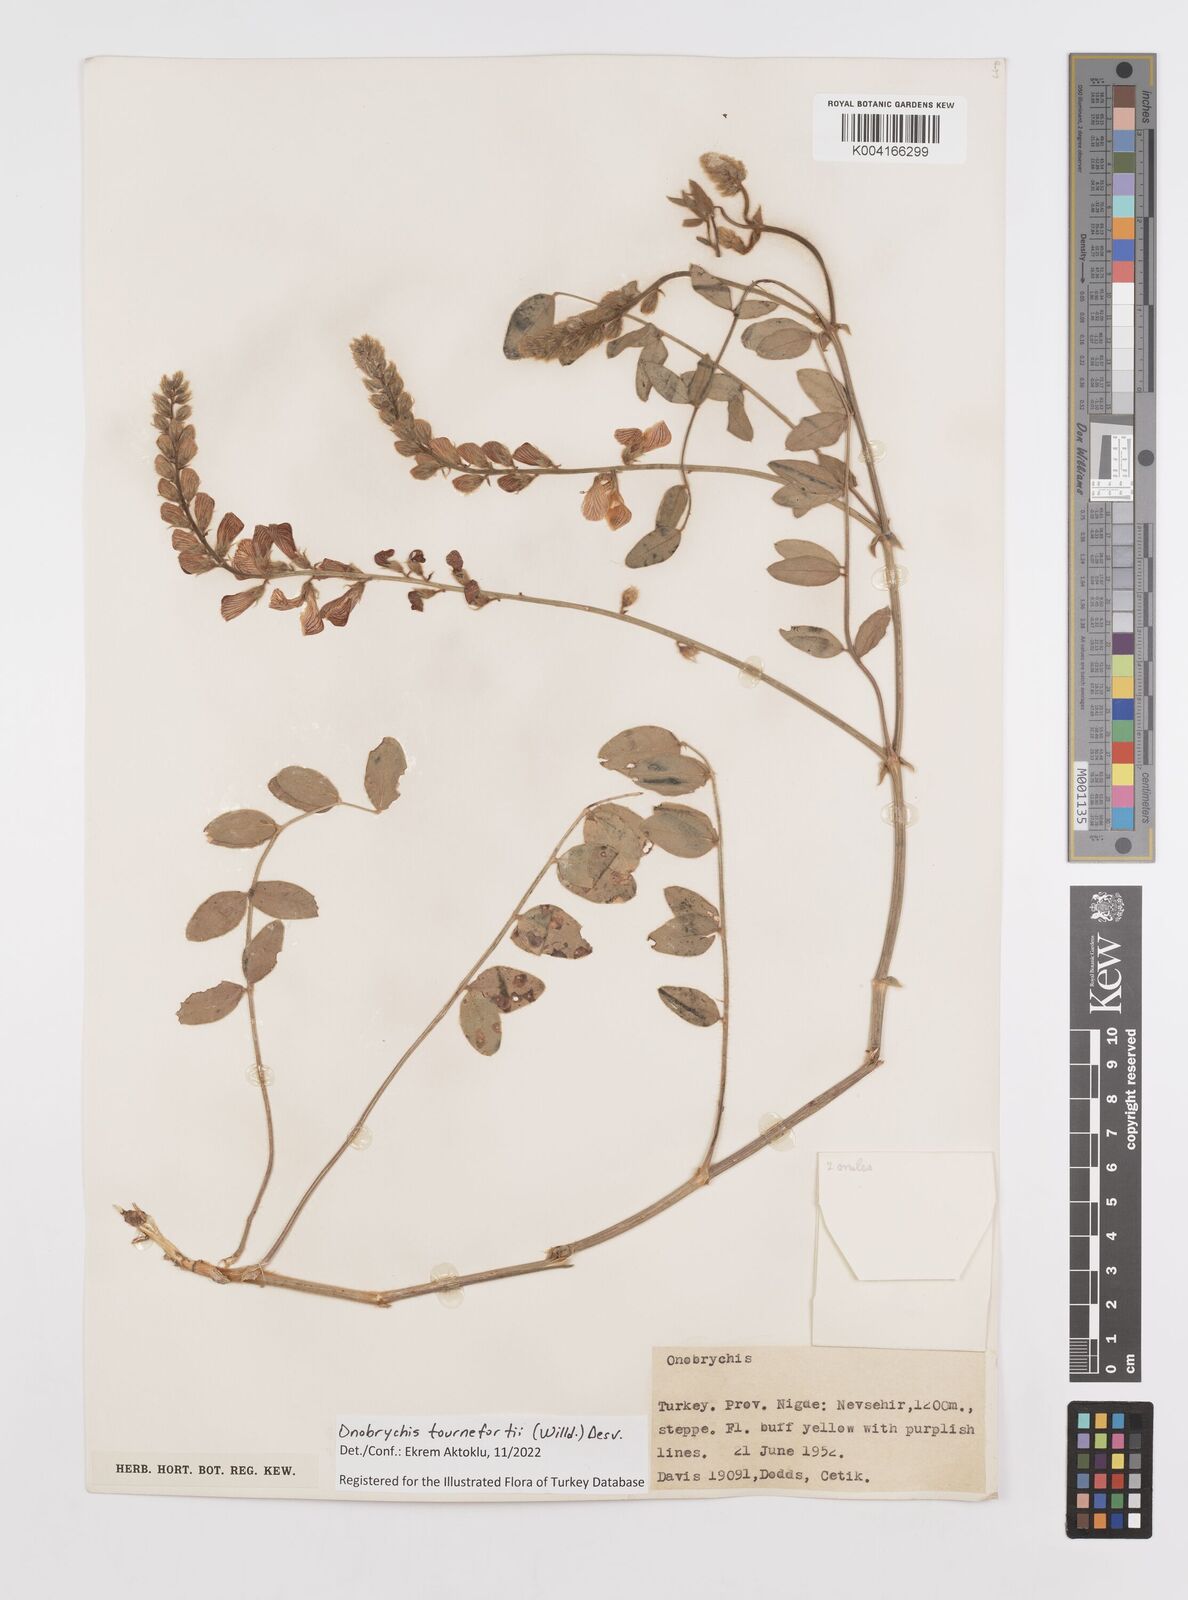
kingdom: Plantae
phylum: Tracheophyta
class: Magnoliopsida
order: Fabales
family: Fabaceae
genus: Onobrychis
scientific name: Onobrychis tournefortii
